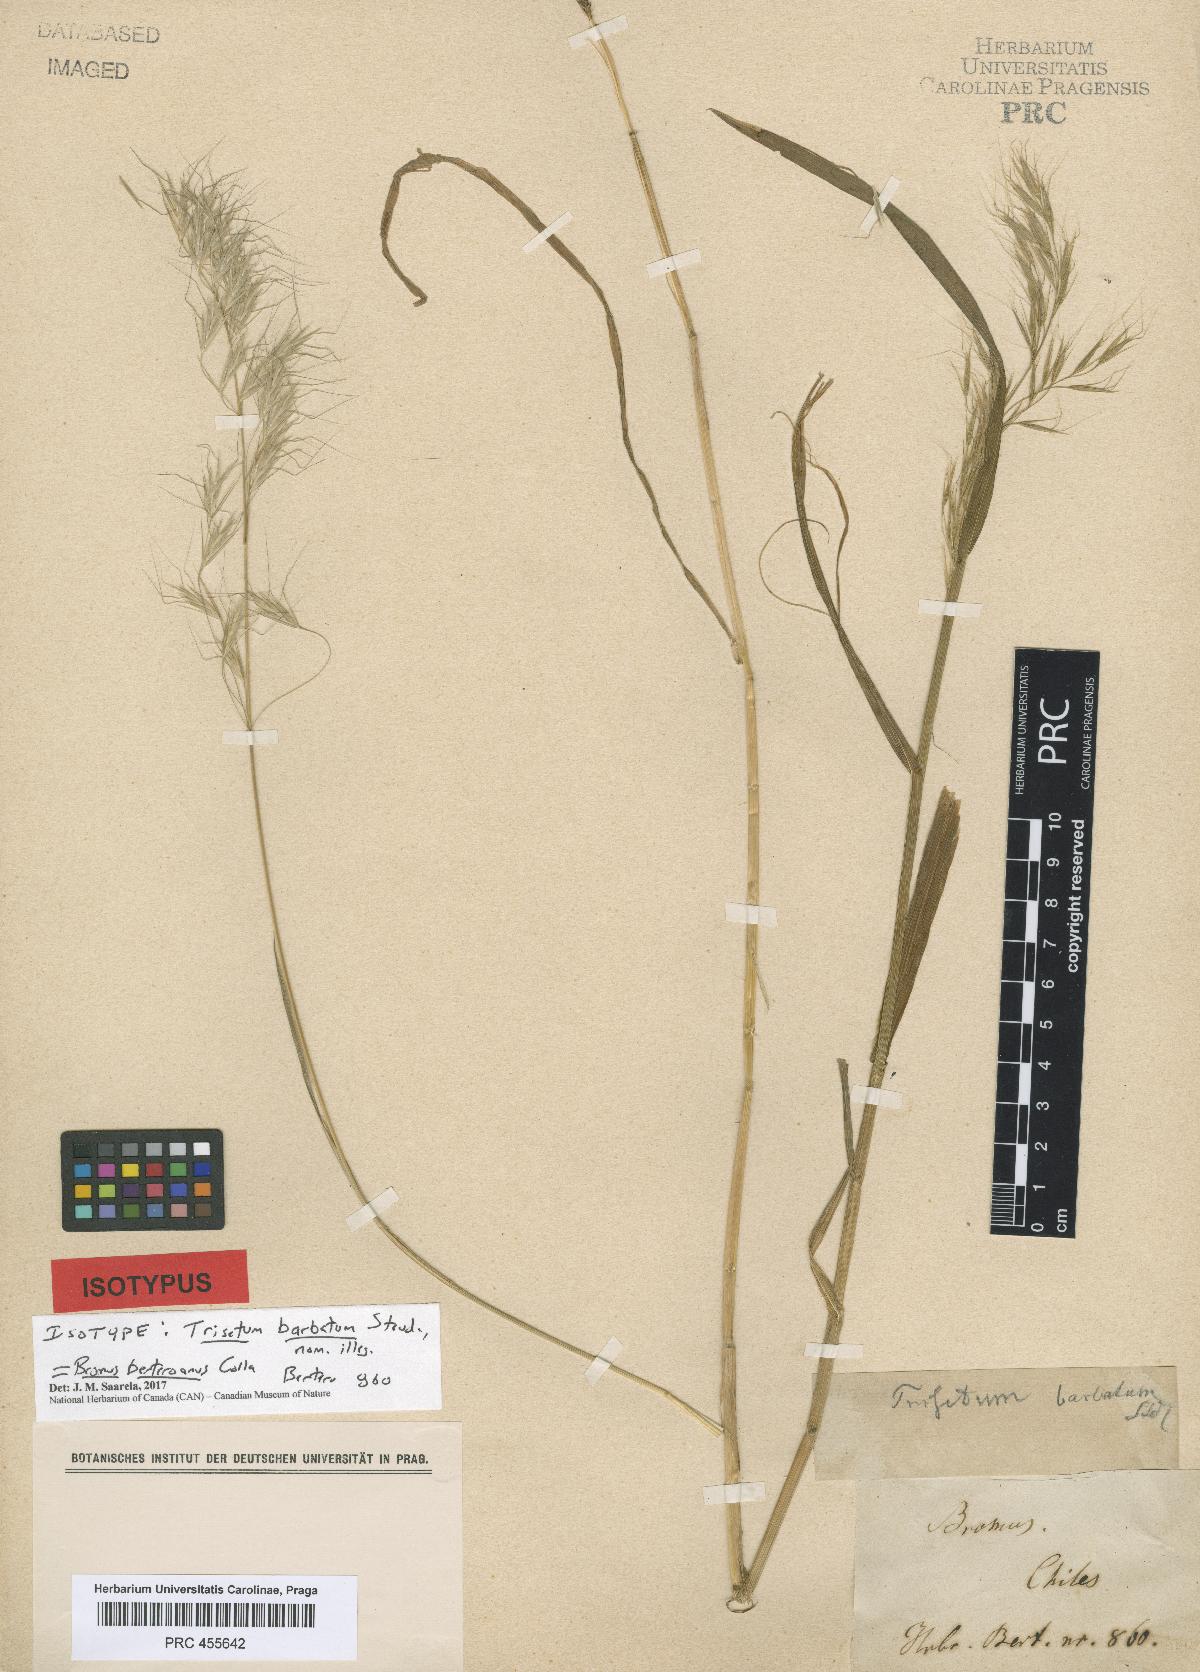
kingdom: Plantae
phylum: Tracheophyta
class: Liliopsida
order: Poales
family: Poaceae
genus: Bromus
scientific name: Bromus berteroanus
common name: Chilean chess
